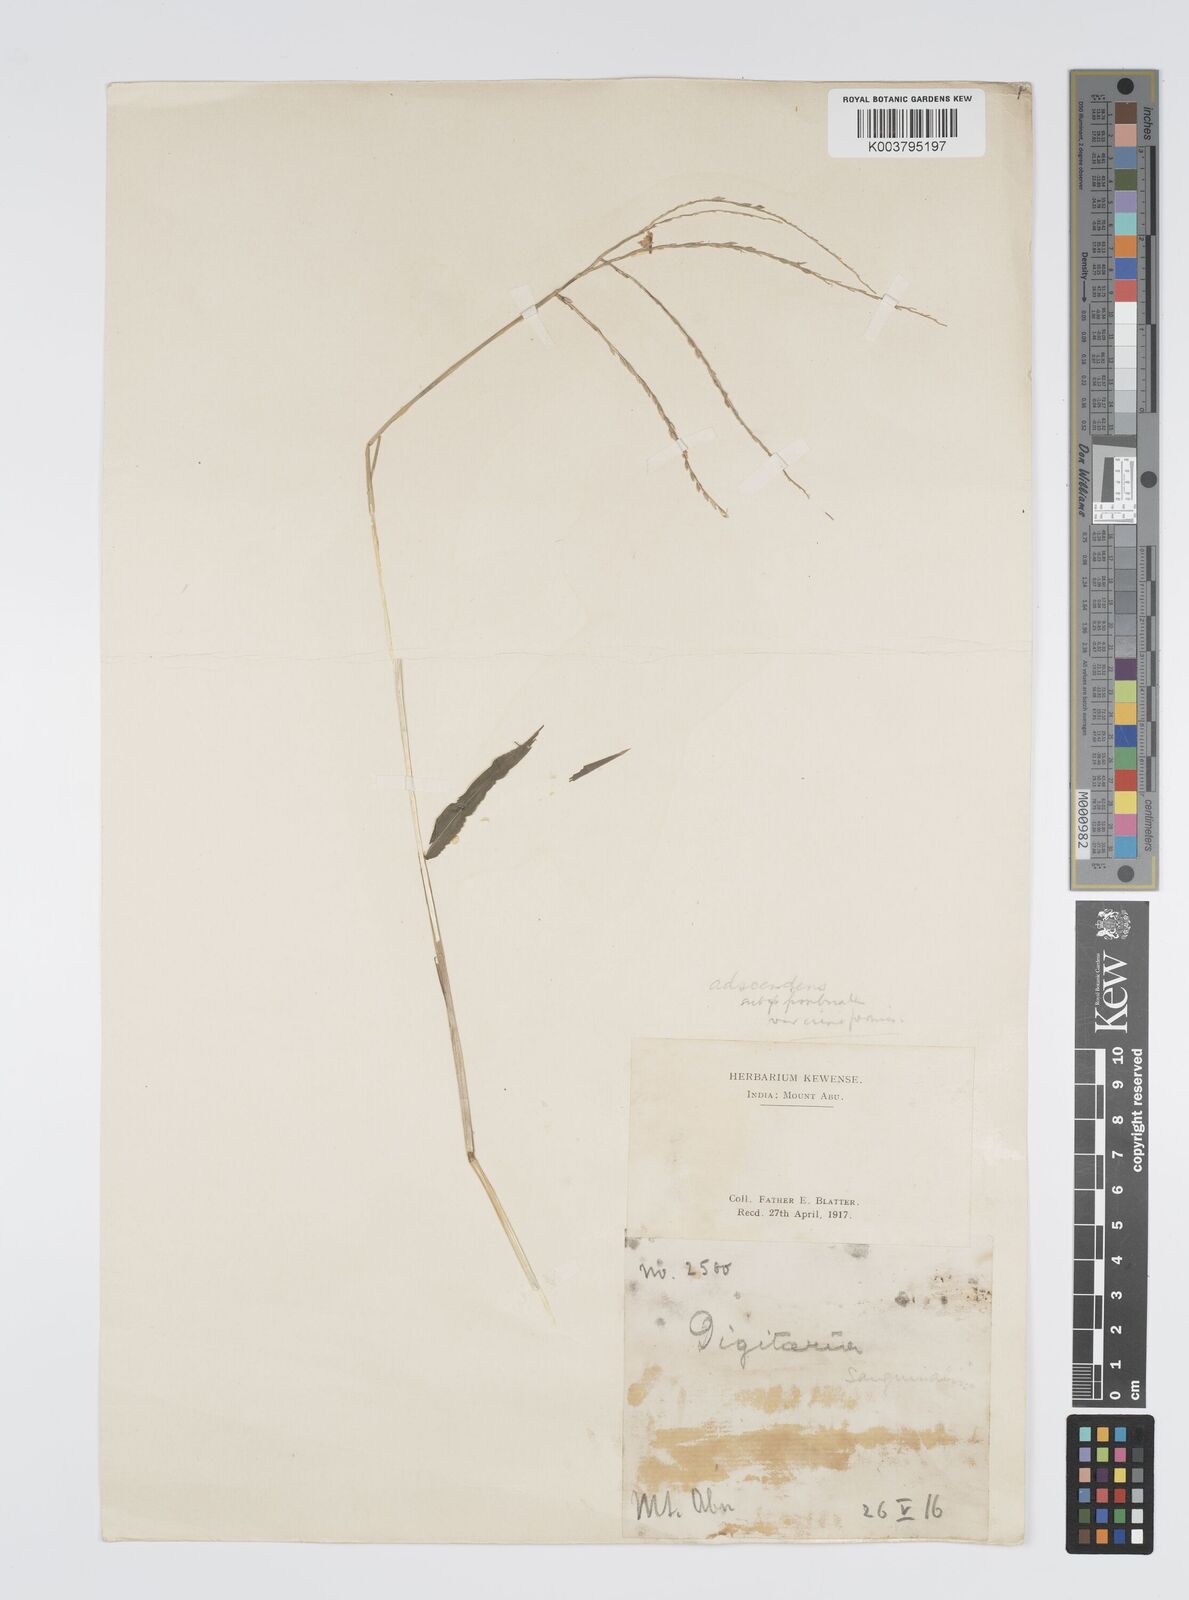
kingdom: Plantae
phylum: Tracheophyta
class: Liliopsida
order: Poales
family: Poaceae
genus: Digitaria
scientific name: Digitaria ciliaris
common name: Tropical finger-grass
